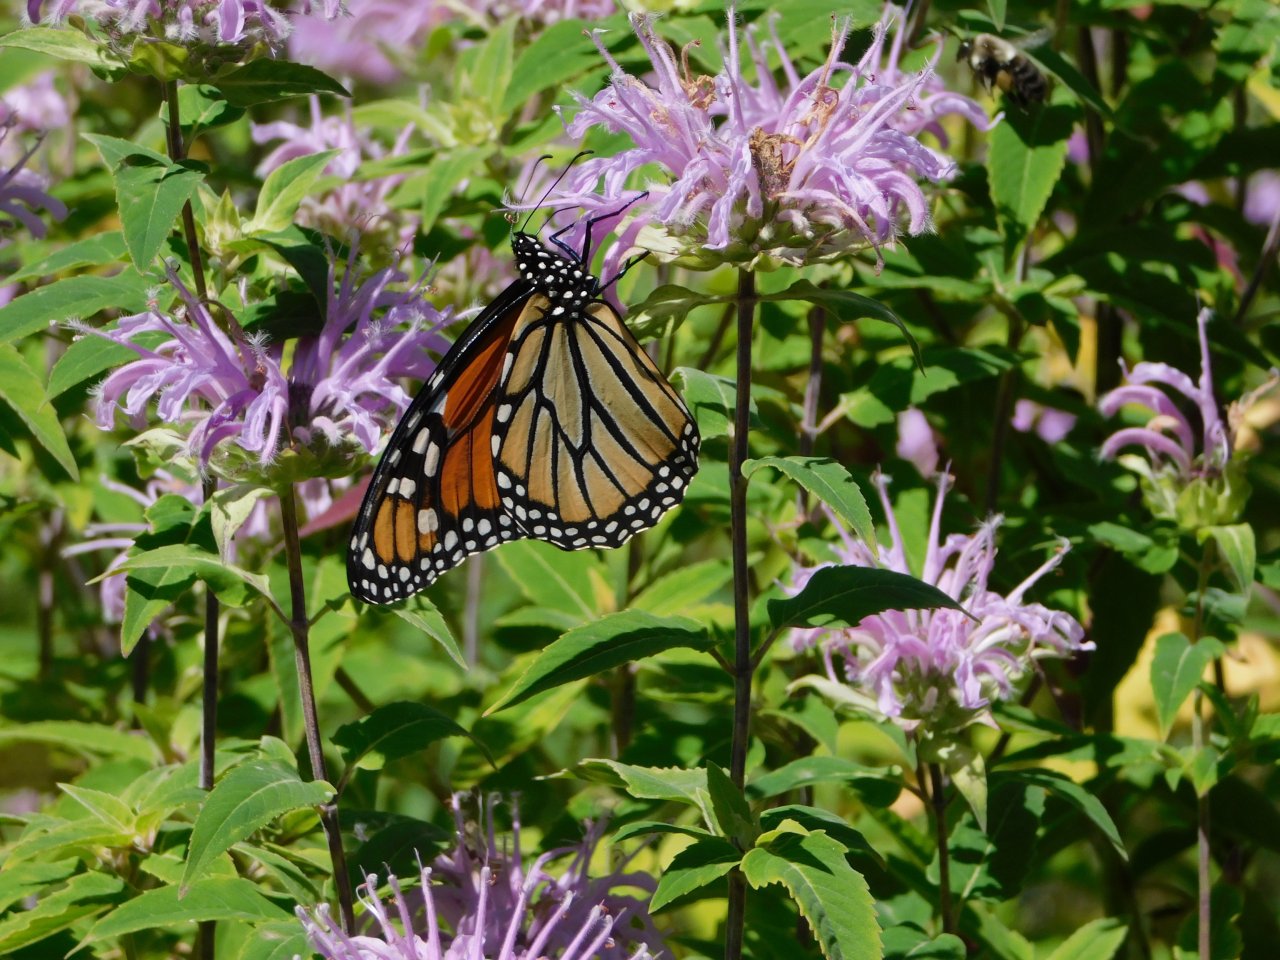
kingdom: Animalia
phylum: Arthropoda
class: Insecta
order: Lepidoptera
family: Nymphalidae
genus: Danaus
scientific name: Danaus plexippus
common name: Monarch
